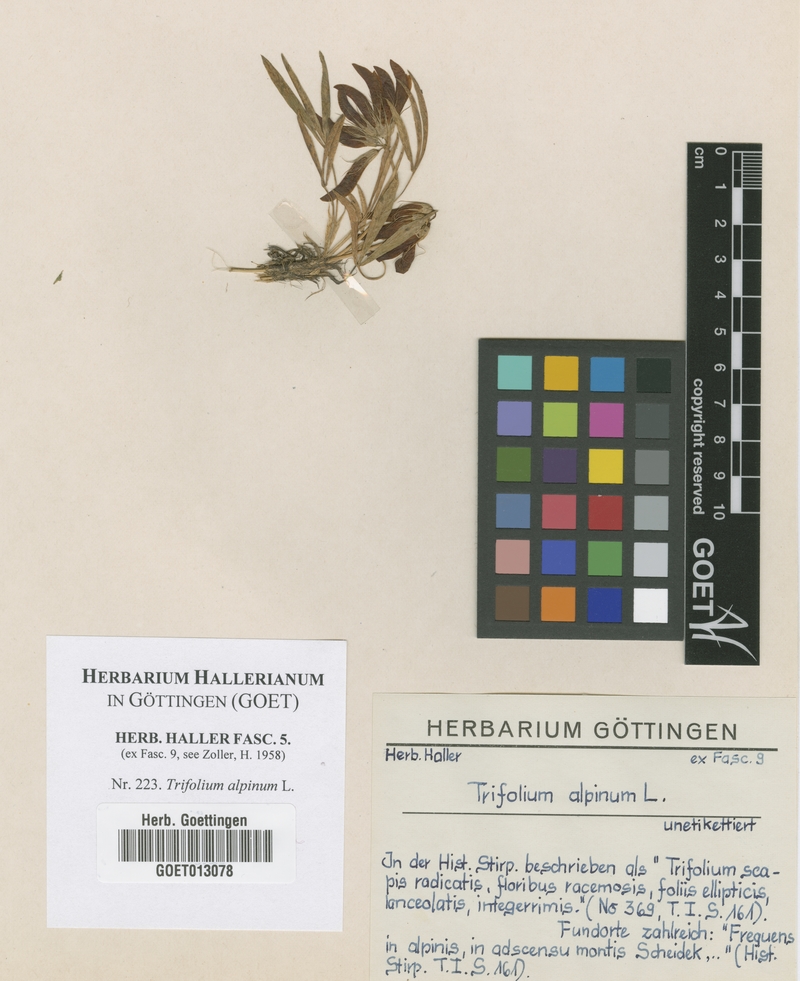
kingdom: Plantae
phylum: Tracheophyta
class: Magnoliopsida
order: Fabales
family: Fabaceae
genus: Trifolium
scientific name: Trifolium alpinum
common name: Alpine clover
